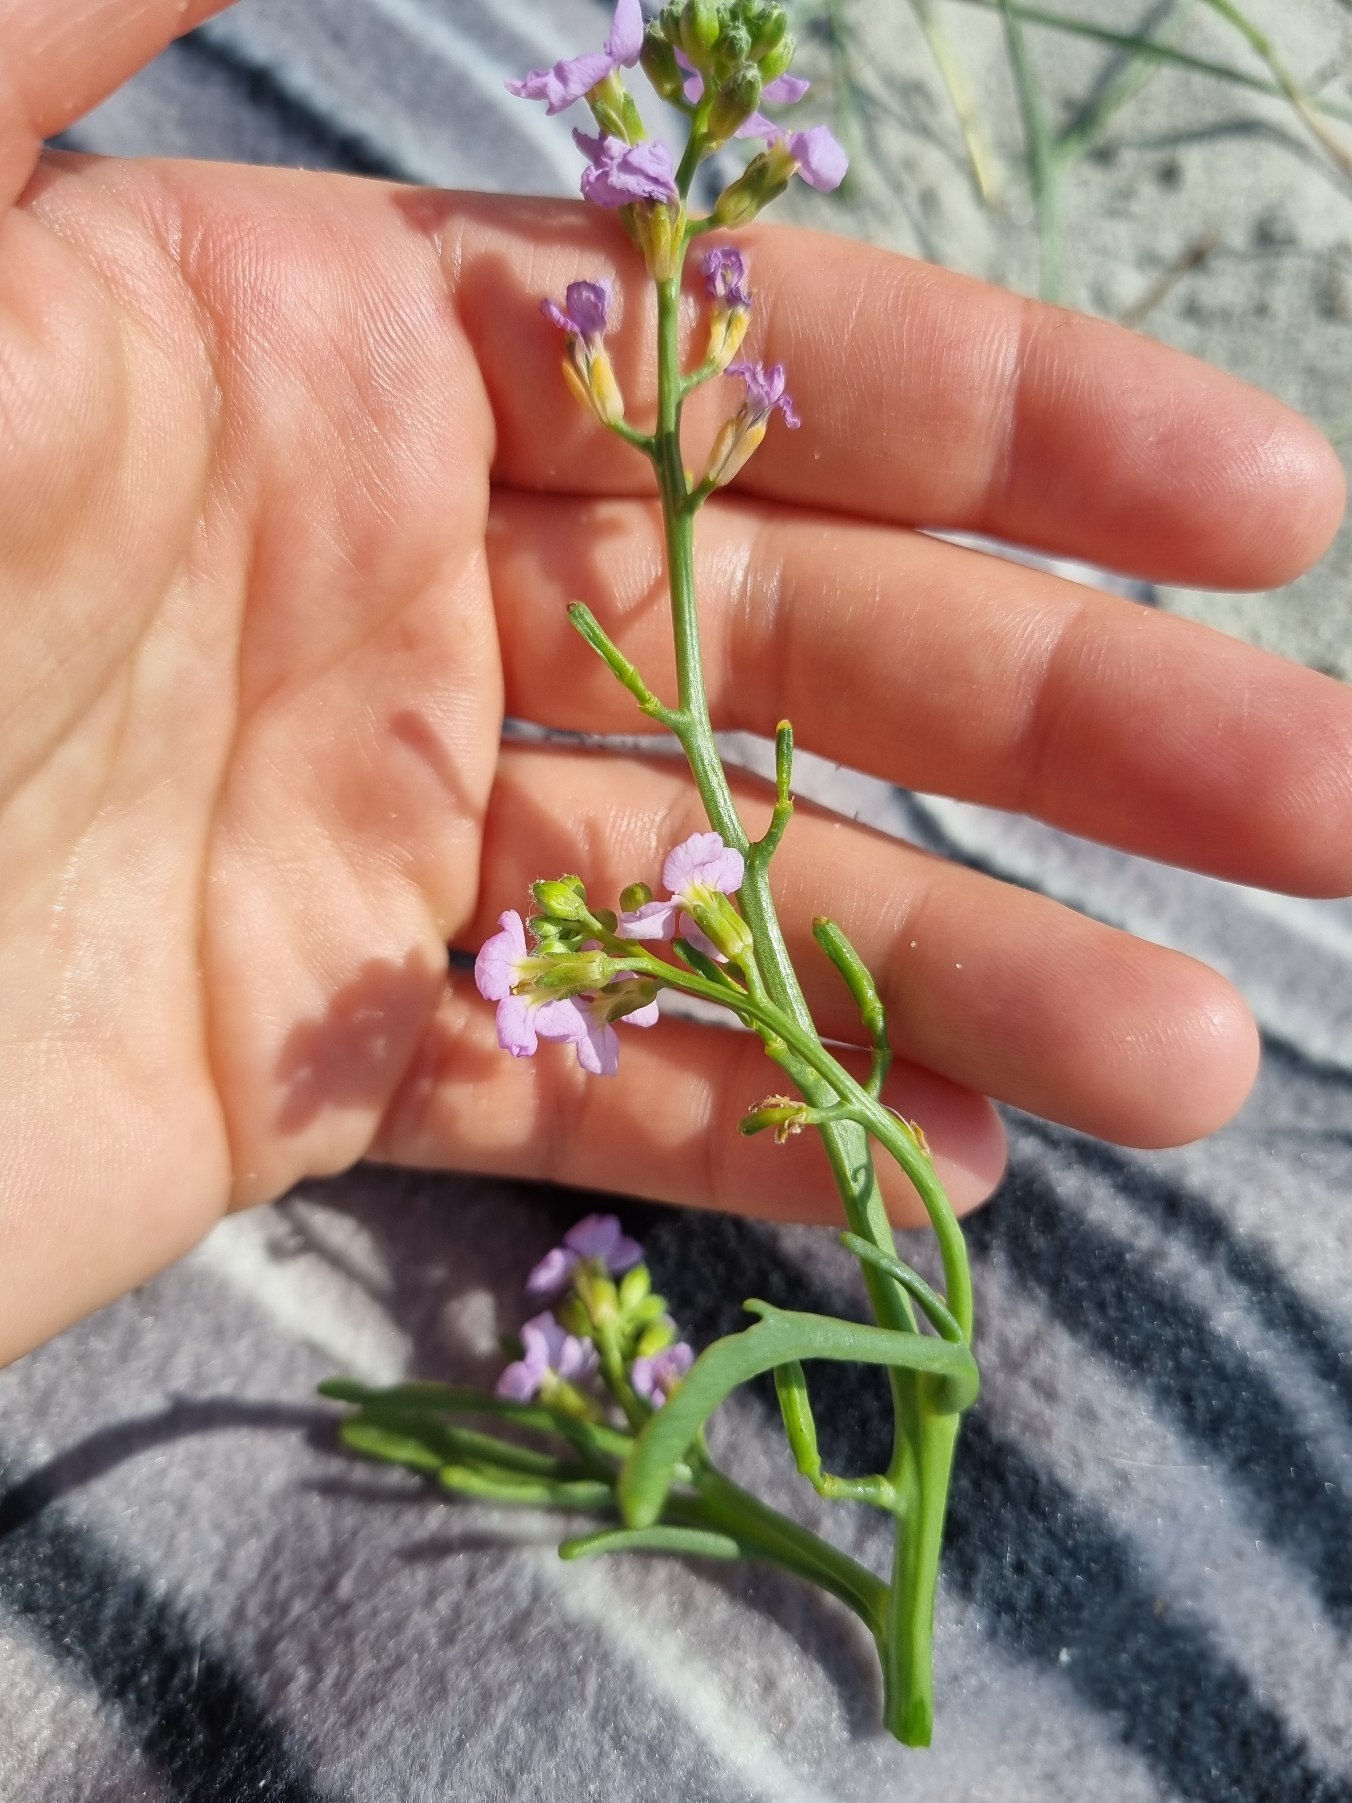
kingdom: Plantae
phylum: Tracheophyta
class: Magnoliopsida
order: Brassicales
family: Brassicaceae
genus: Cakile
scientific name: Cakile maritima
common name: Strandsennep
